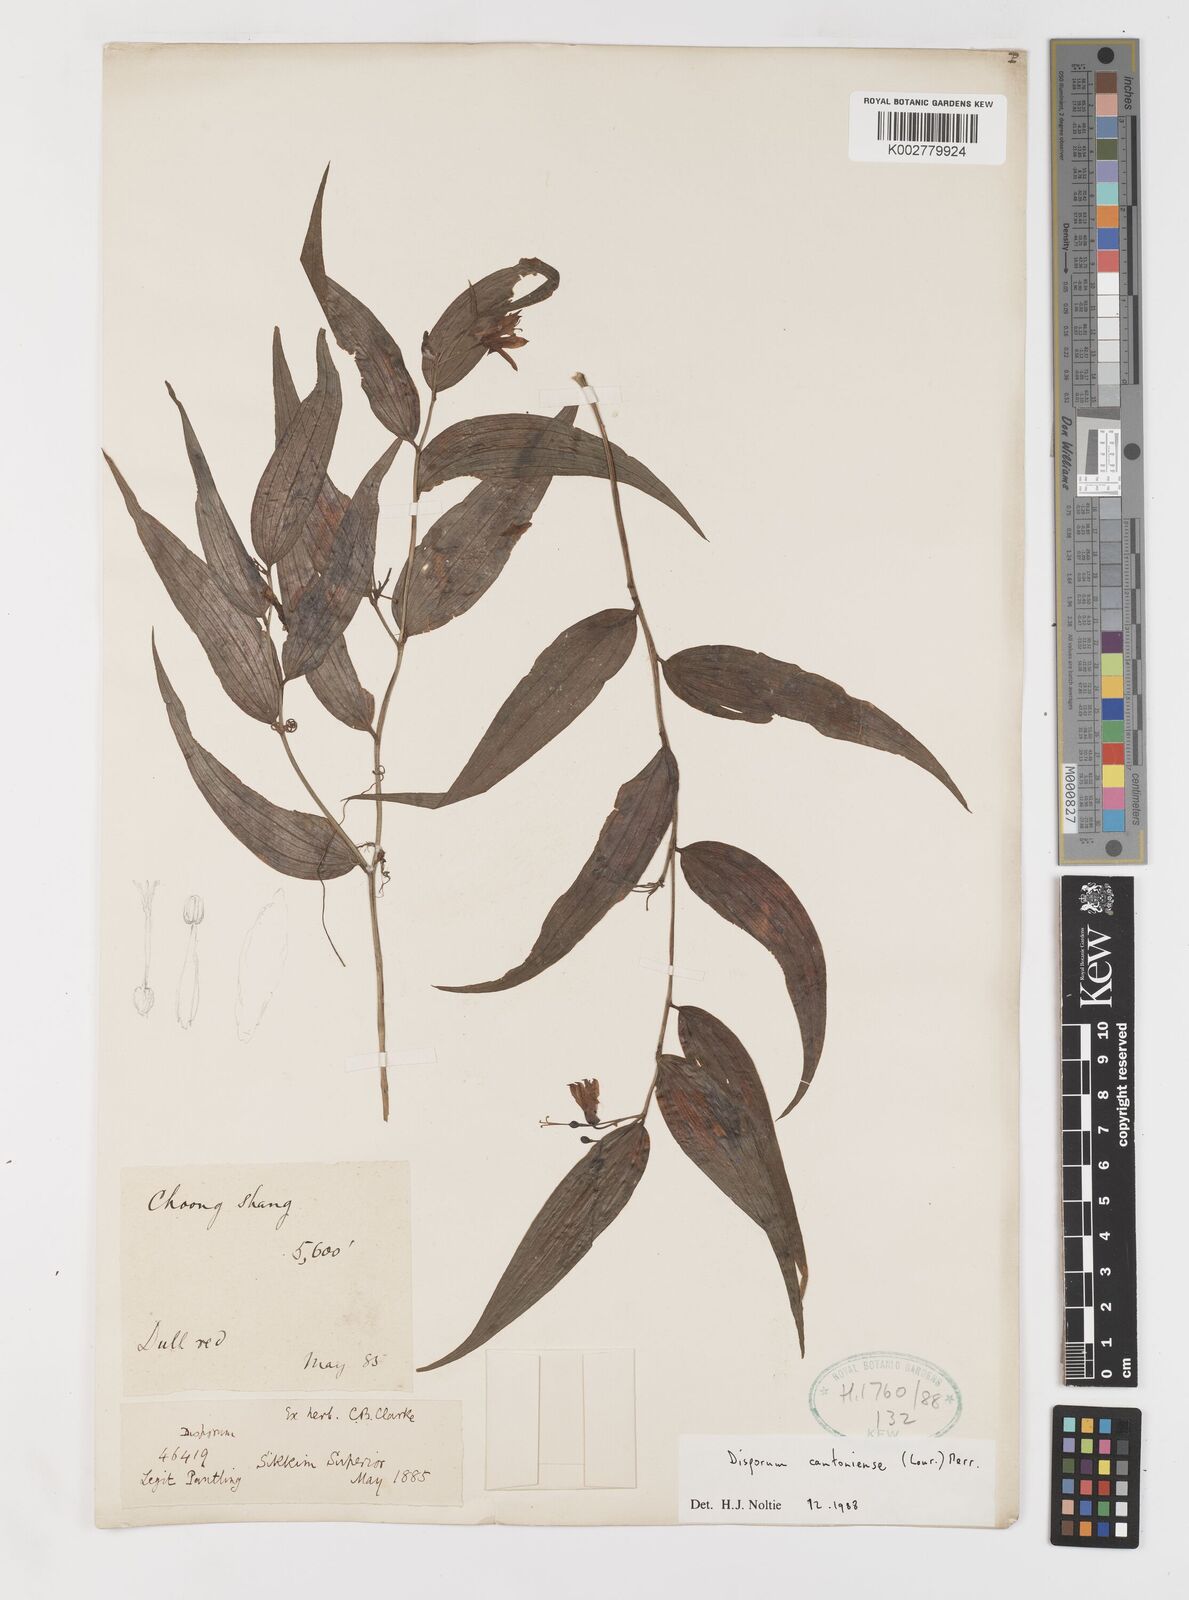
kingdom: Plantae
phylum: Tracheophyta
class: Liliopsida
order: Liliales
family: Colchicaceae
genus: Disporum
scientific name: Disporum cantoniense
